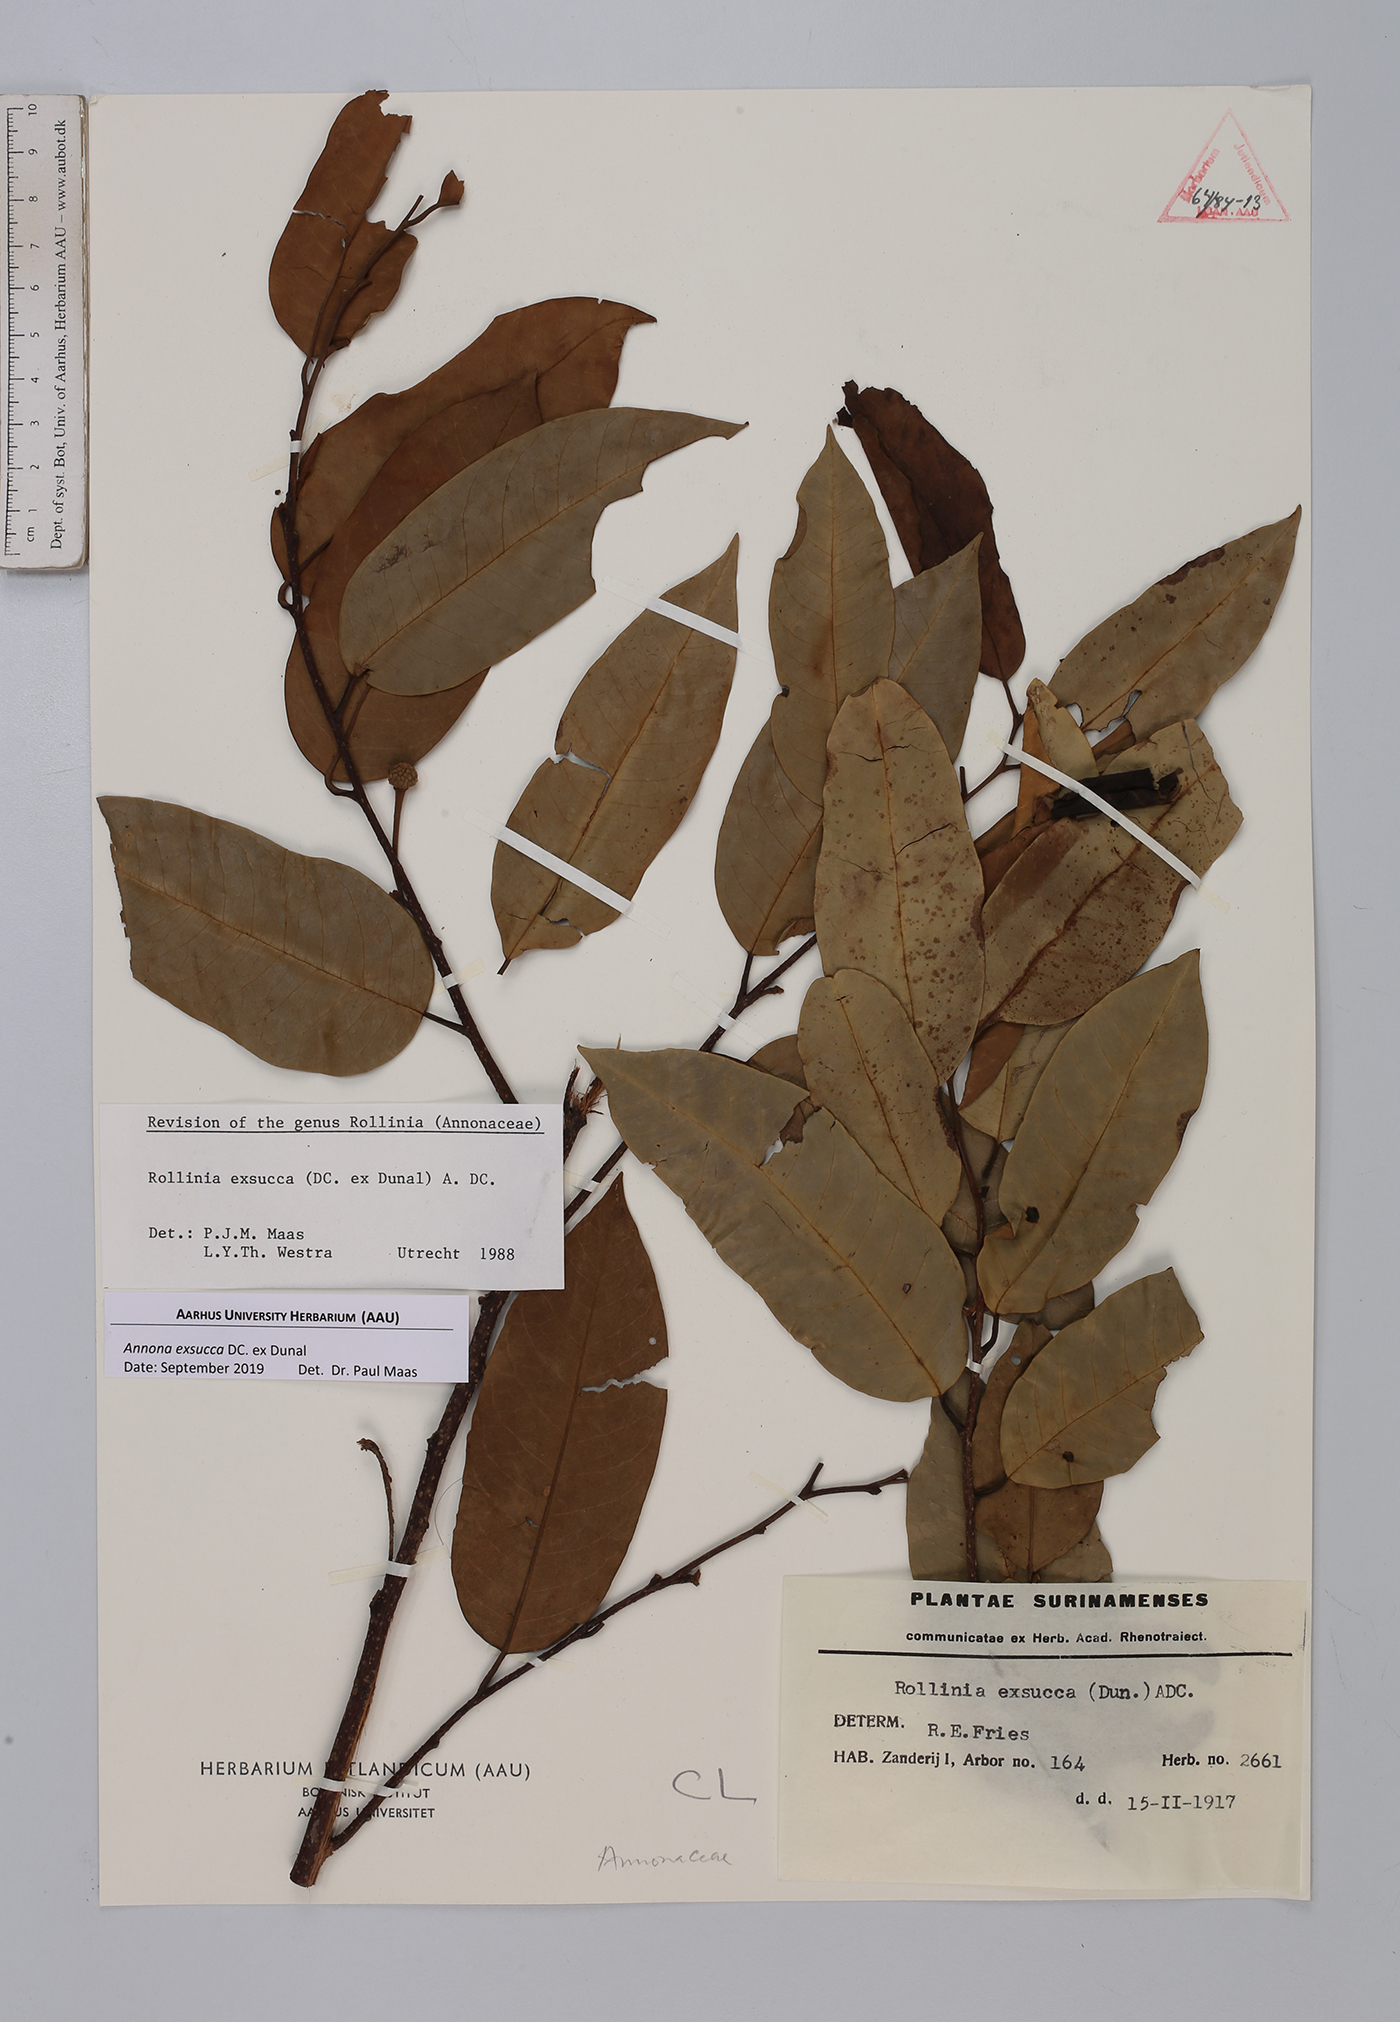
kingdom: Plantae
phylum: Tracheophyta
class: Magnoliopsida
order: Magnoliales
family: Annonaceae
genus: Annona
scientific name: Annona exsucca
